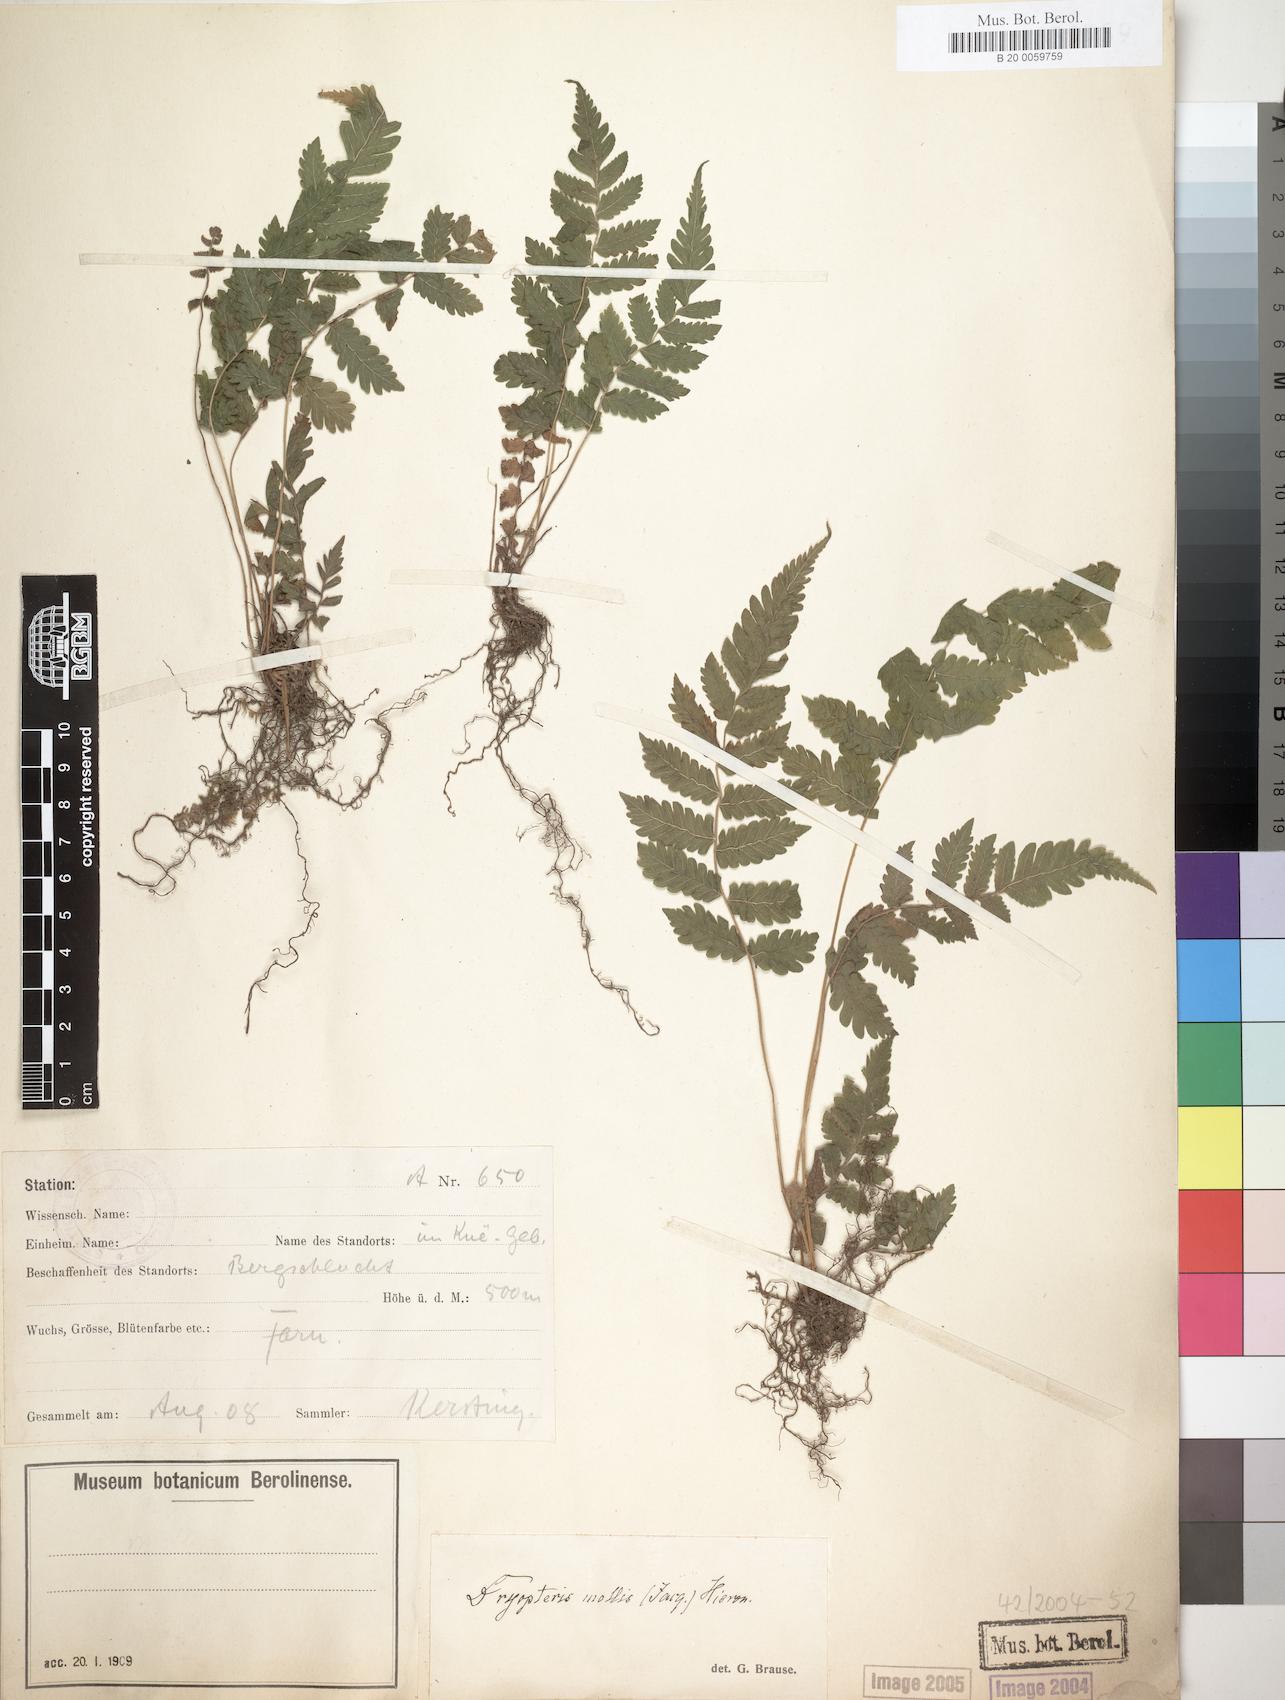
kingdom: Plantae
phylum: Tracheophyta
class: Polypodiopsida
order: Polypodiales
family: Thelypteridaceae
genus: Christella
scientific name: Christella dentata
